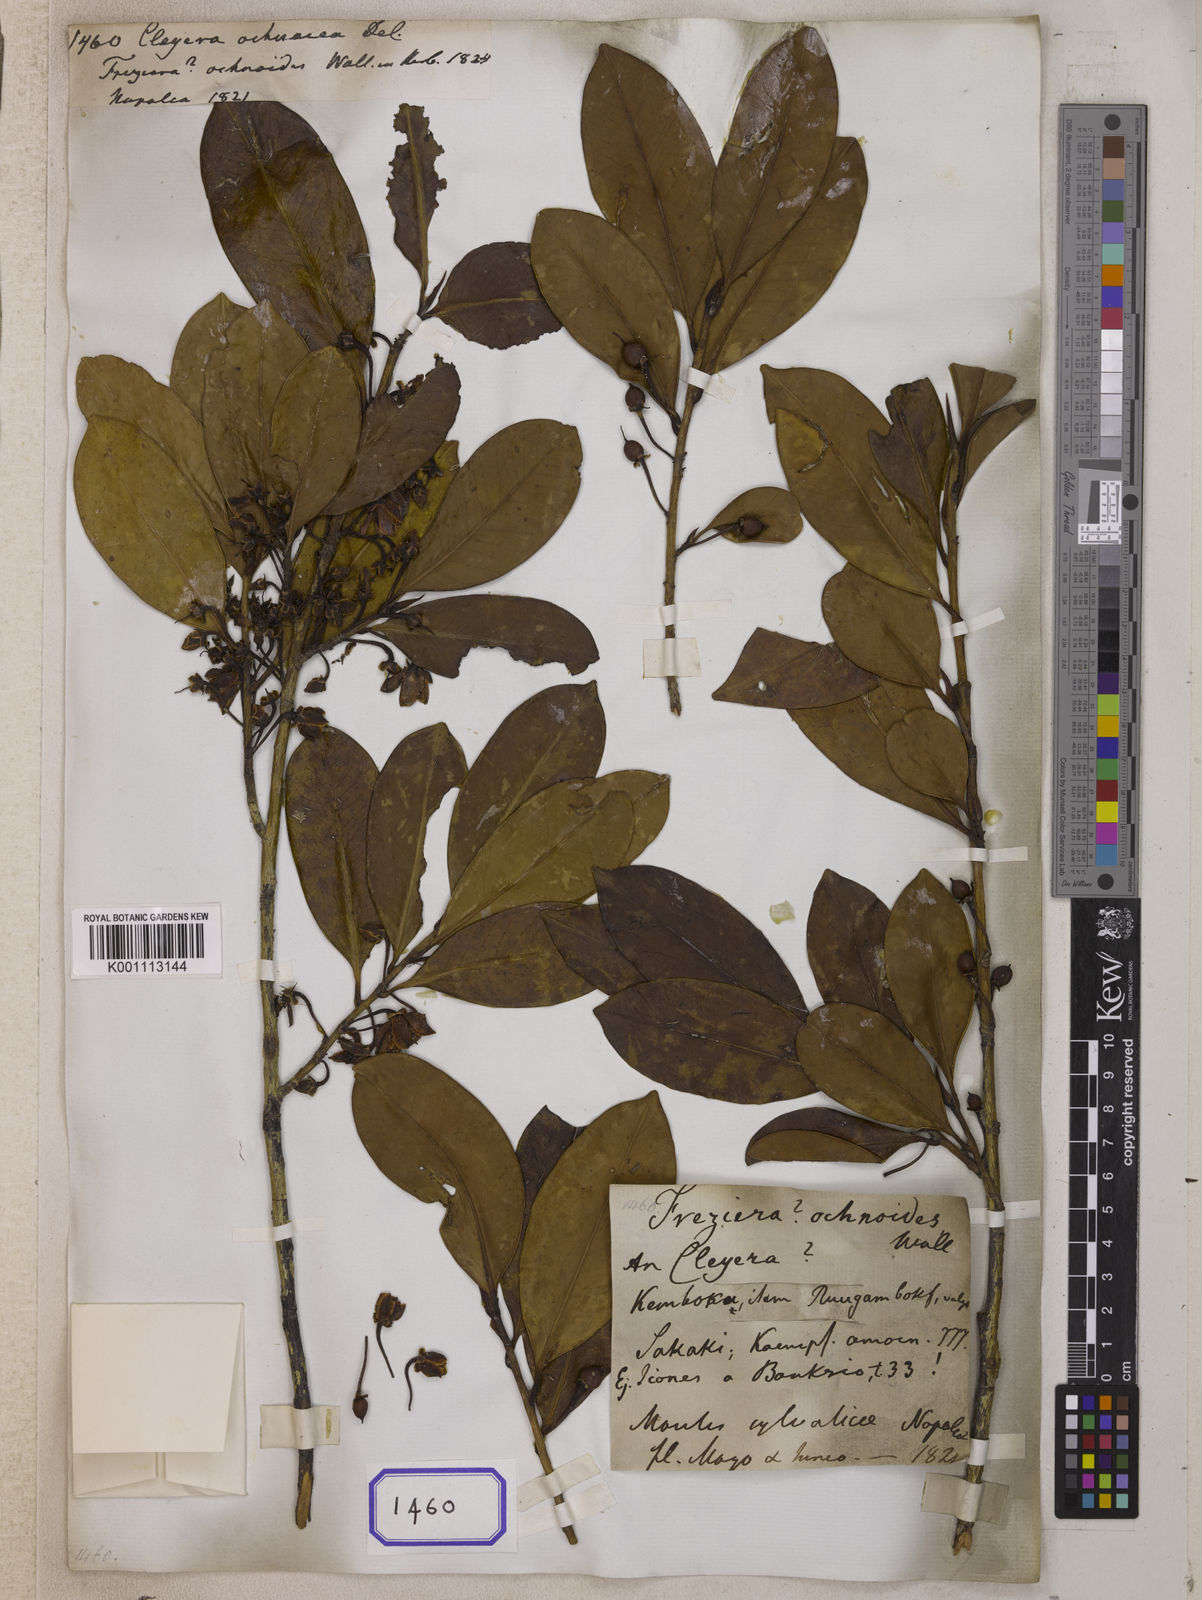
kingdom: Plantae
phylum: Tracheophyta
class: Magnoliopsida
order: Ericales
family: Pentaphylacaceae
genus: Cleyera
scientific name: Cleyera japonica
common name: Sakaki
